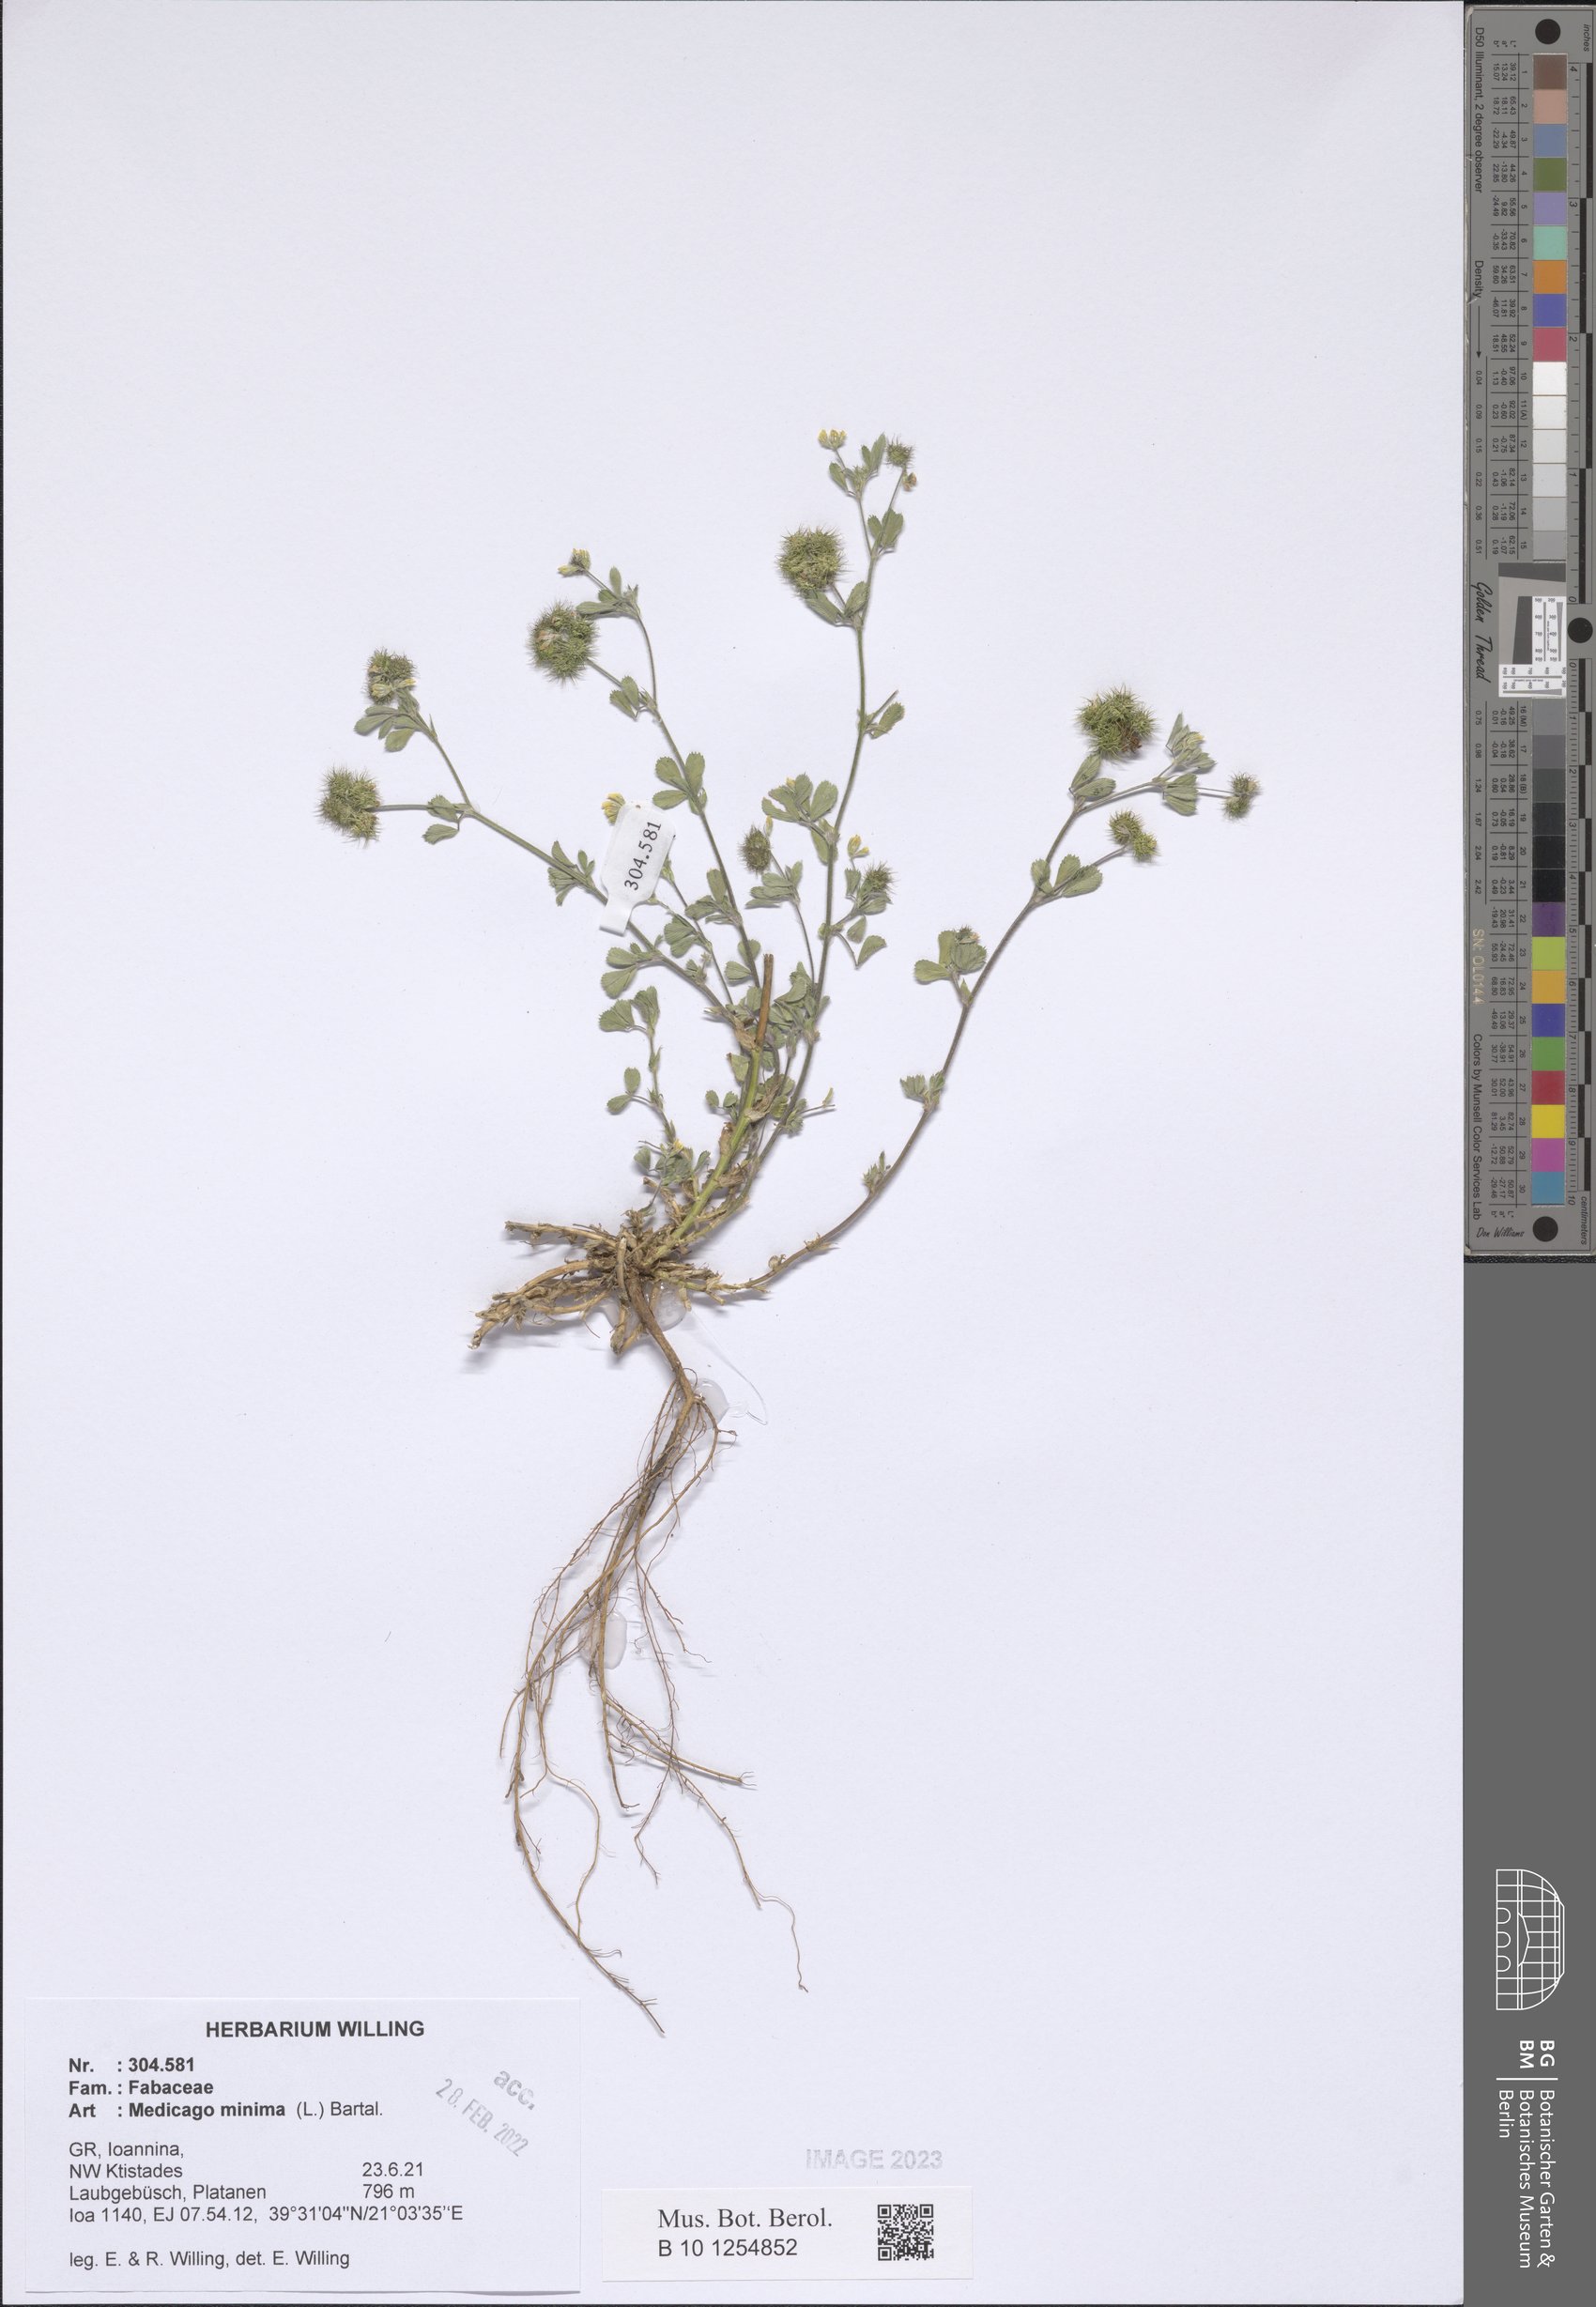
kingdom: Plantae
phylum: Tracheophyta
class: Magnoliopsida
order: Fabales
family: Fabaceae
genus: Medicago
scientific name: Medicago minima
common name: Little bur-clover
